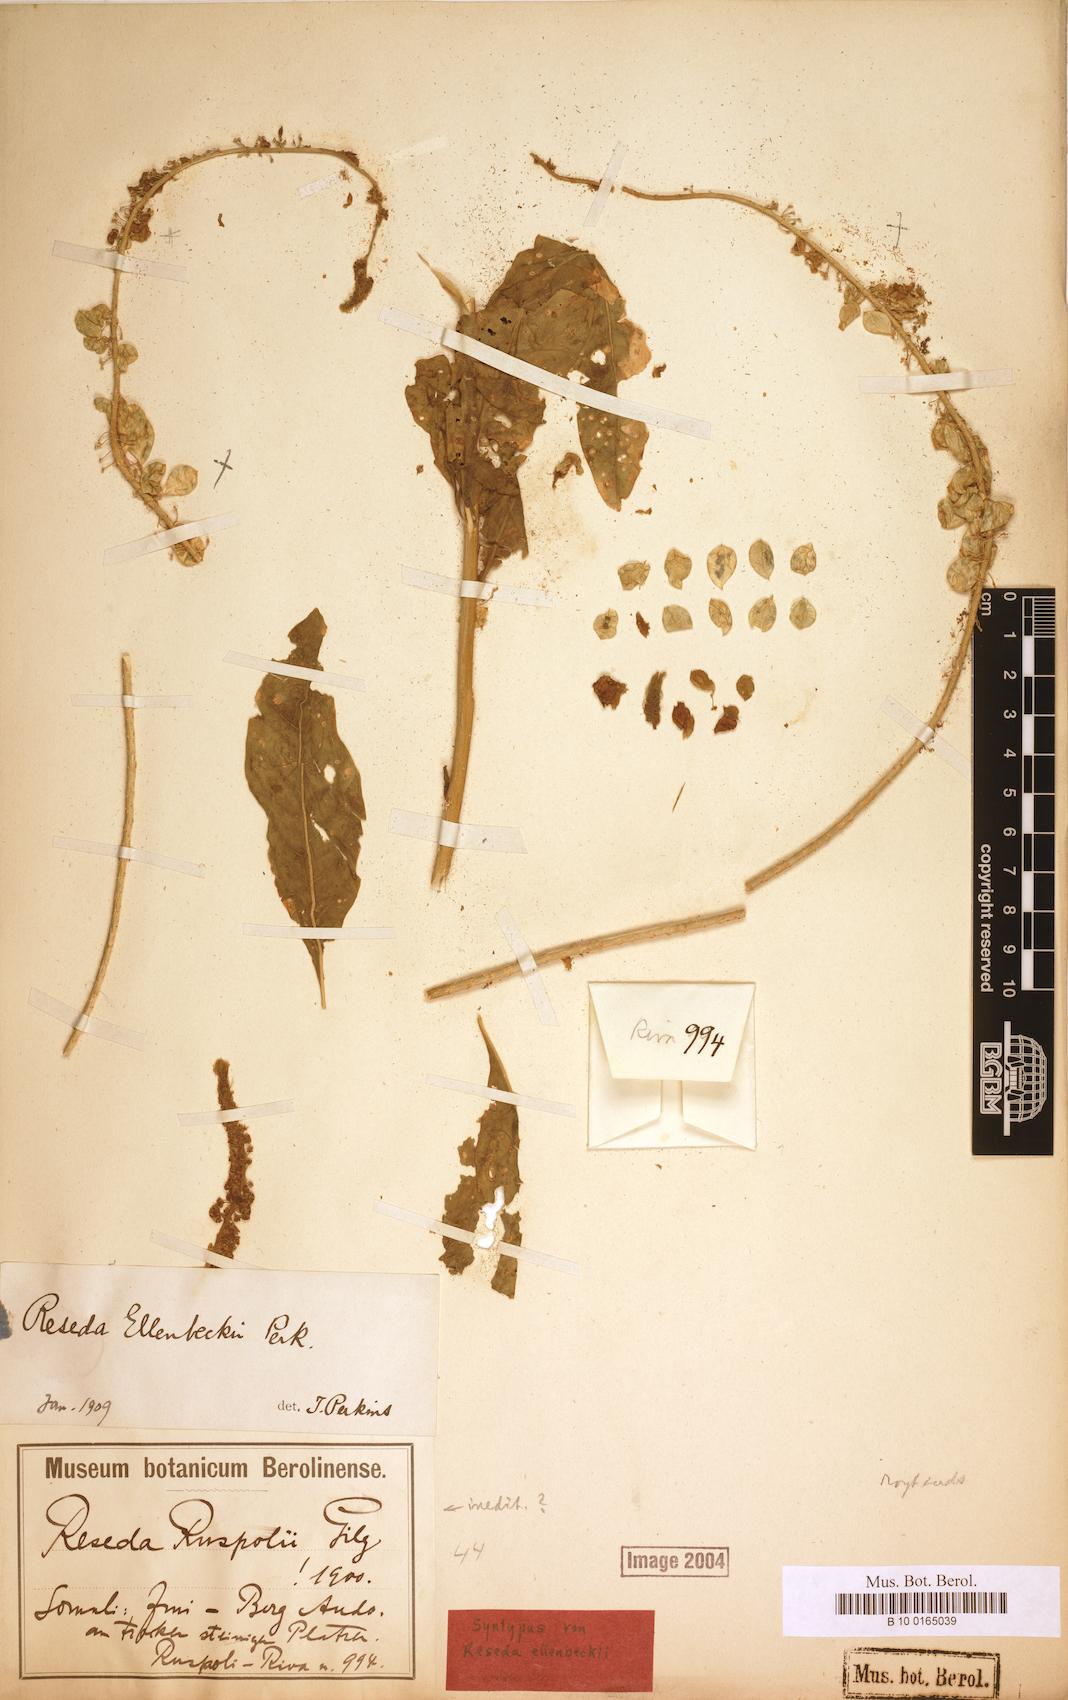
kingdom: Plantae
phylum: Tracheophyta
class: Magnoliopsida
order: Brassicales
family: Resedaceae
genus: Reseda
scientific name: Reseda ellenbeckii
